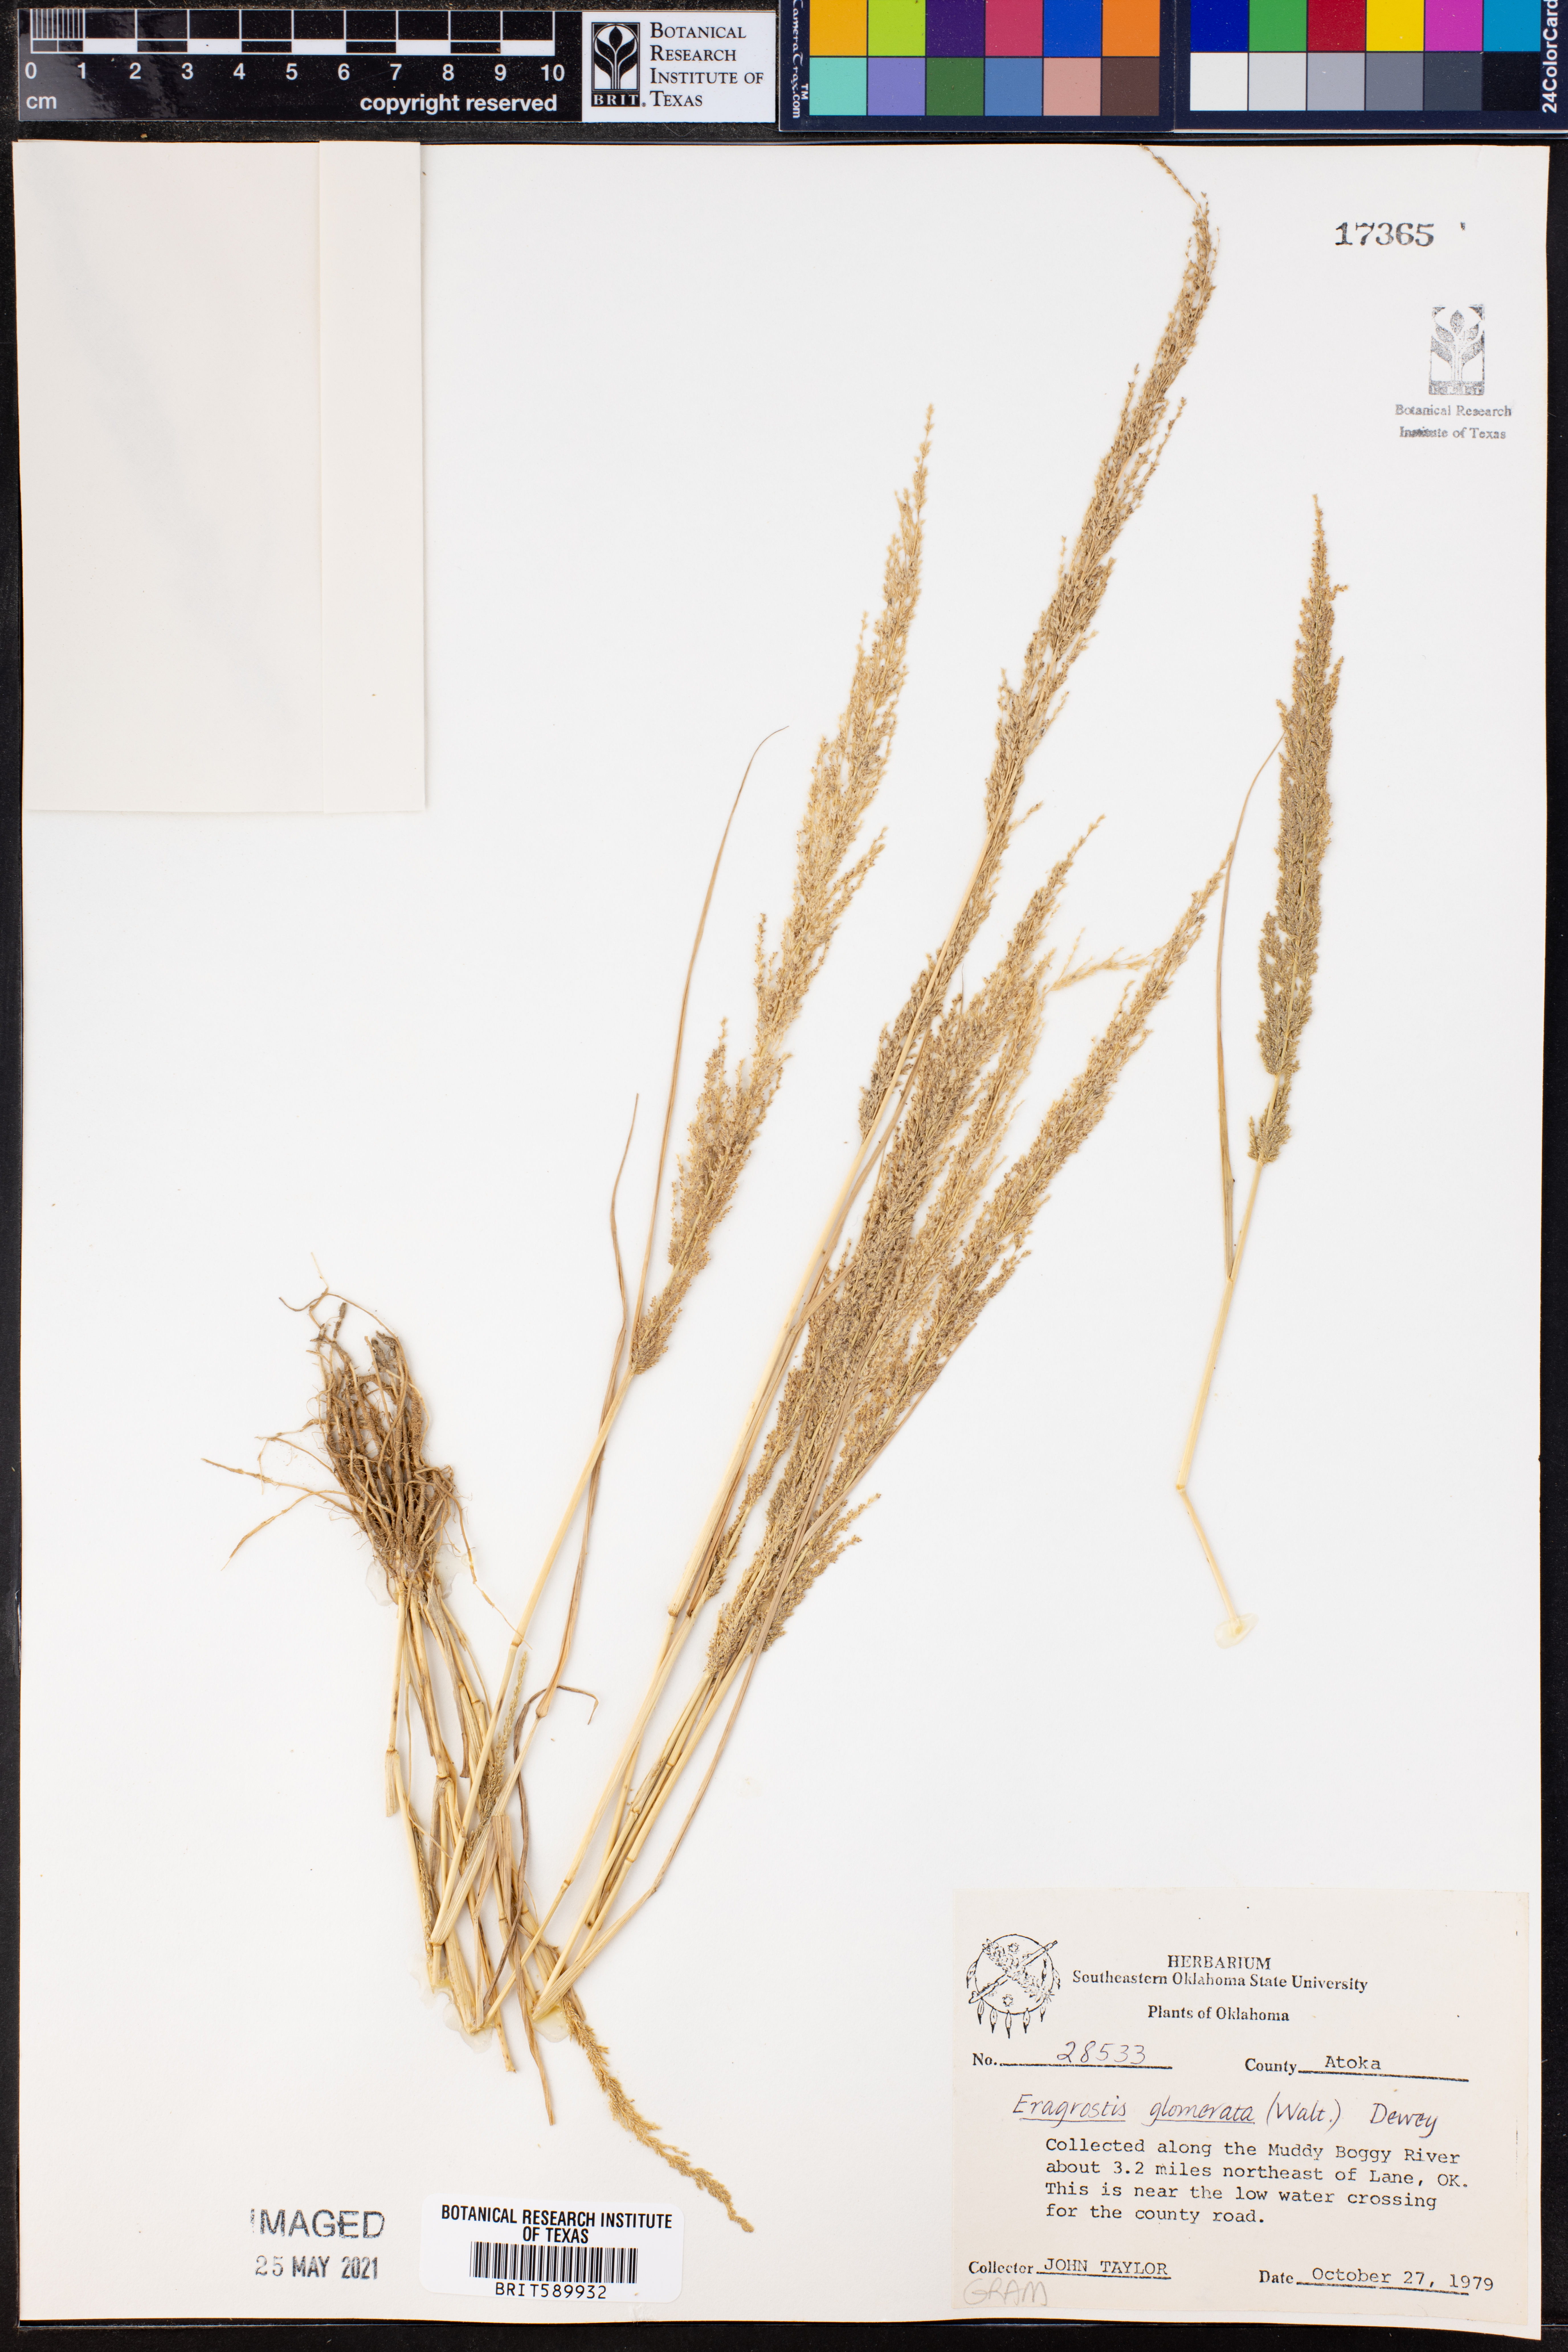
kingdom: Plantae
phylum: Tracheophyta
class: Liliopsida
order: Poales
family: Poaceae
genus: Eragrostis
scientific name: Eragrostis japonica
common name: Pond lovegrass
